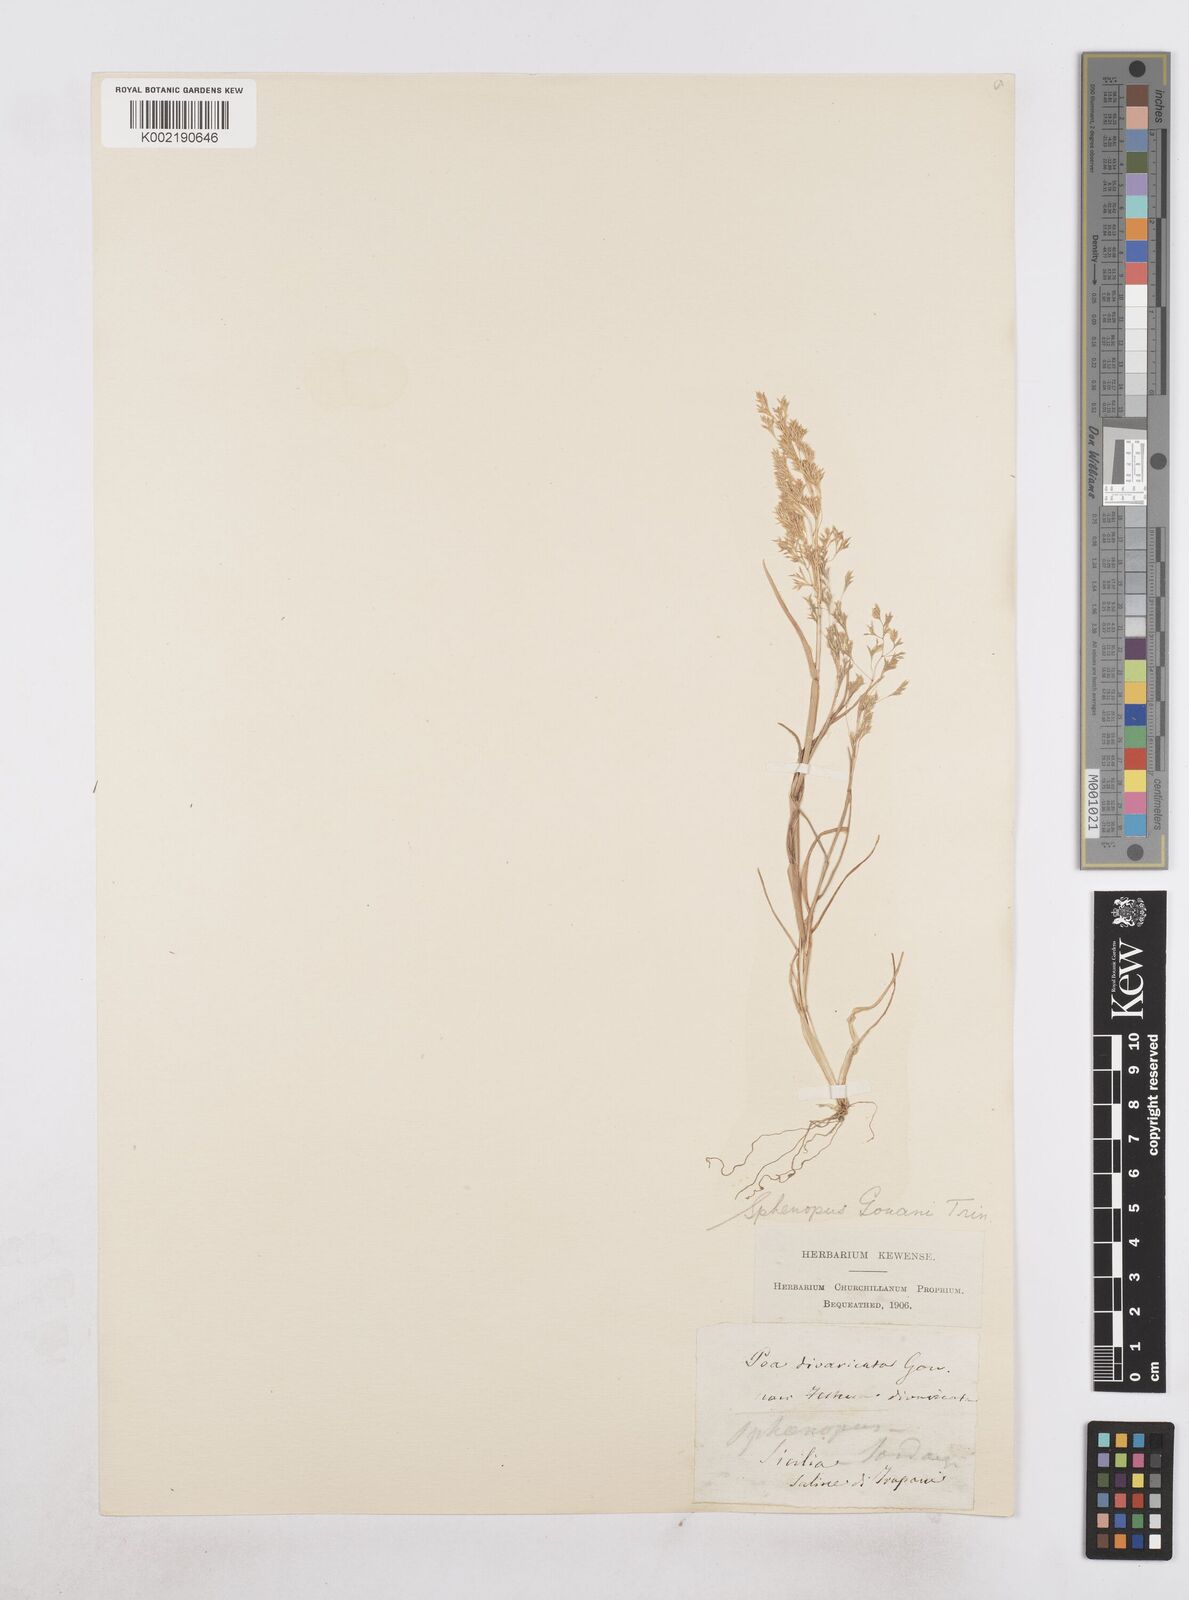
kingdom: Plantae
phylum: Tracheophyta
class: Liliopsida
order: Poales
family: Poaceae
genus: Sphenopus
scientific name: Sphenopus divaricatus
